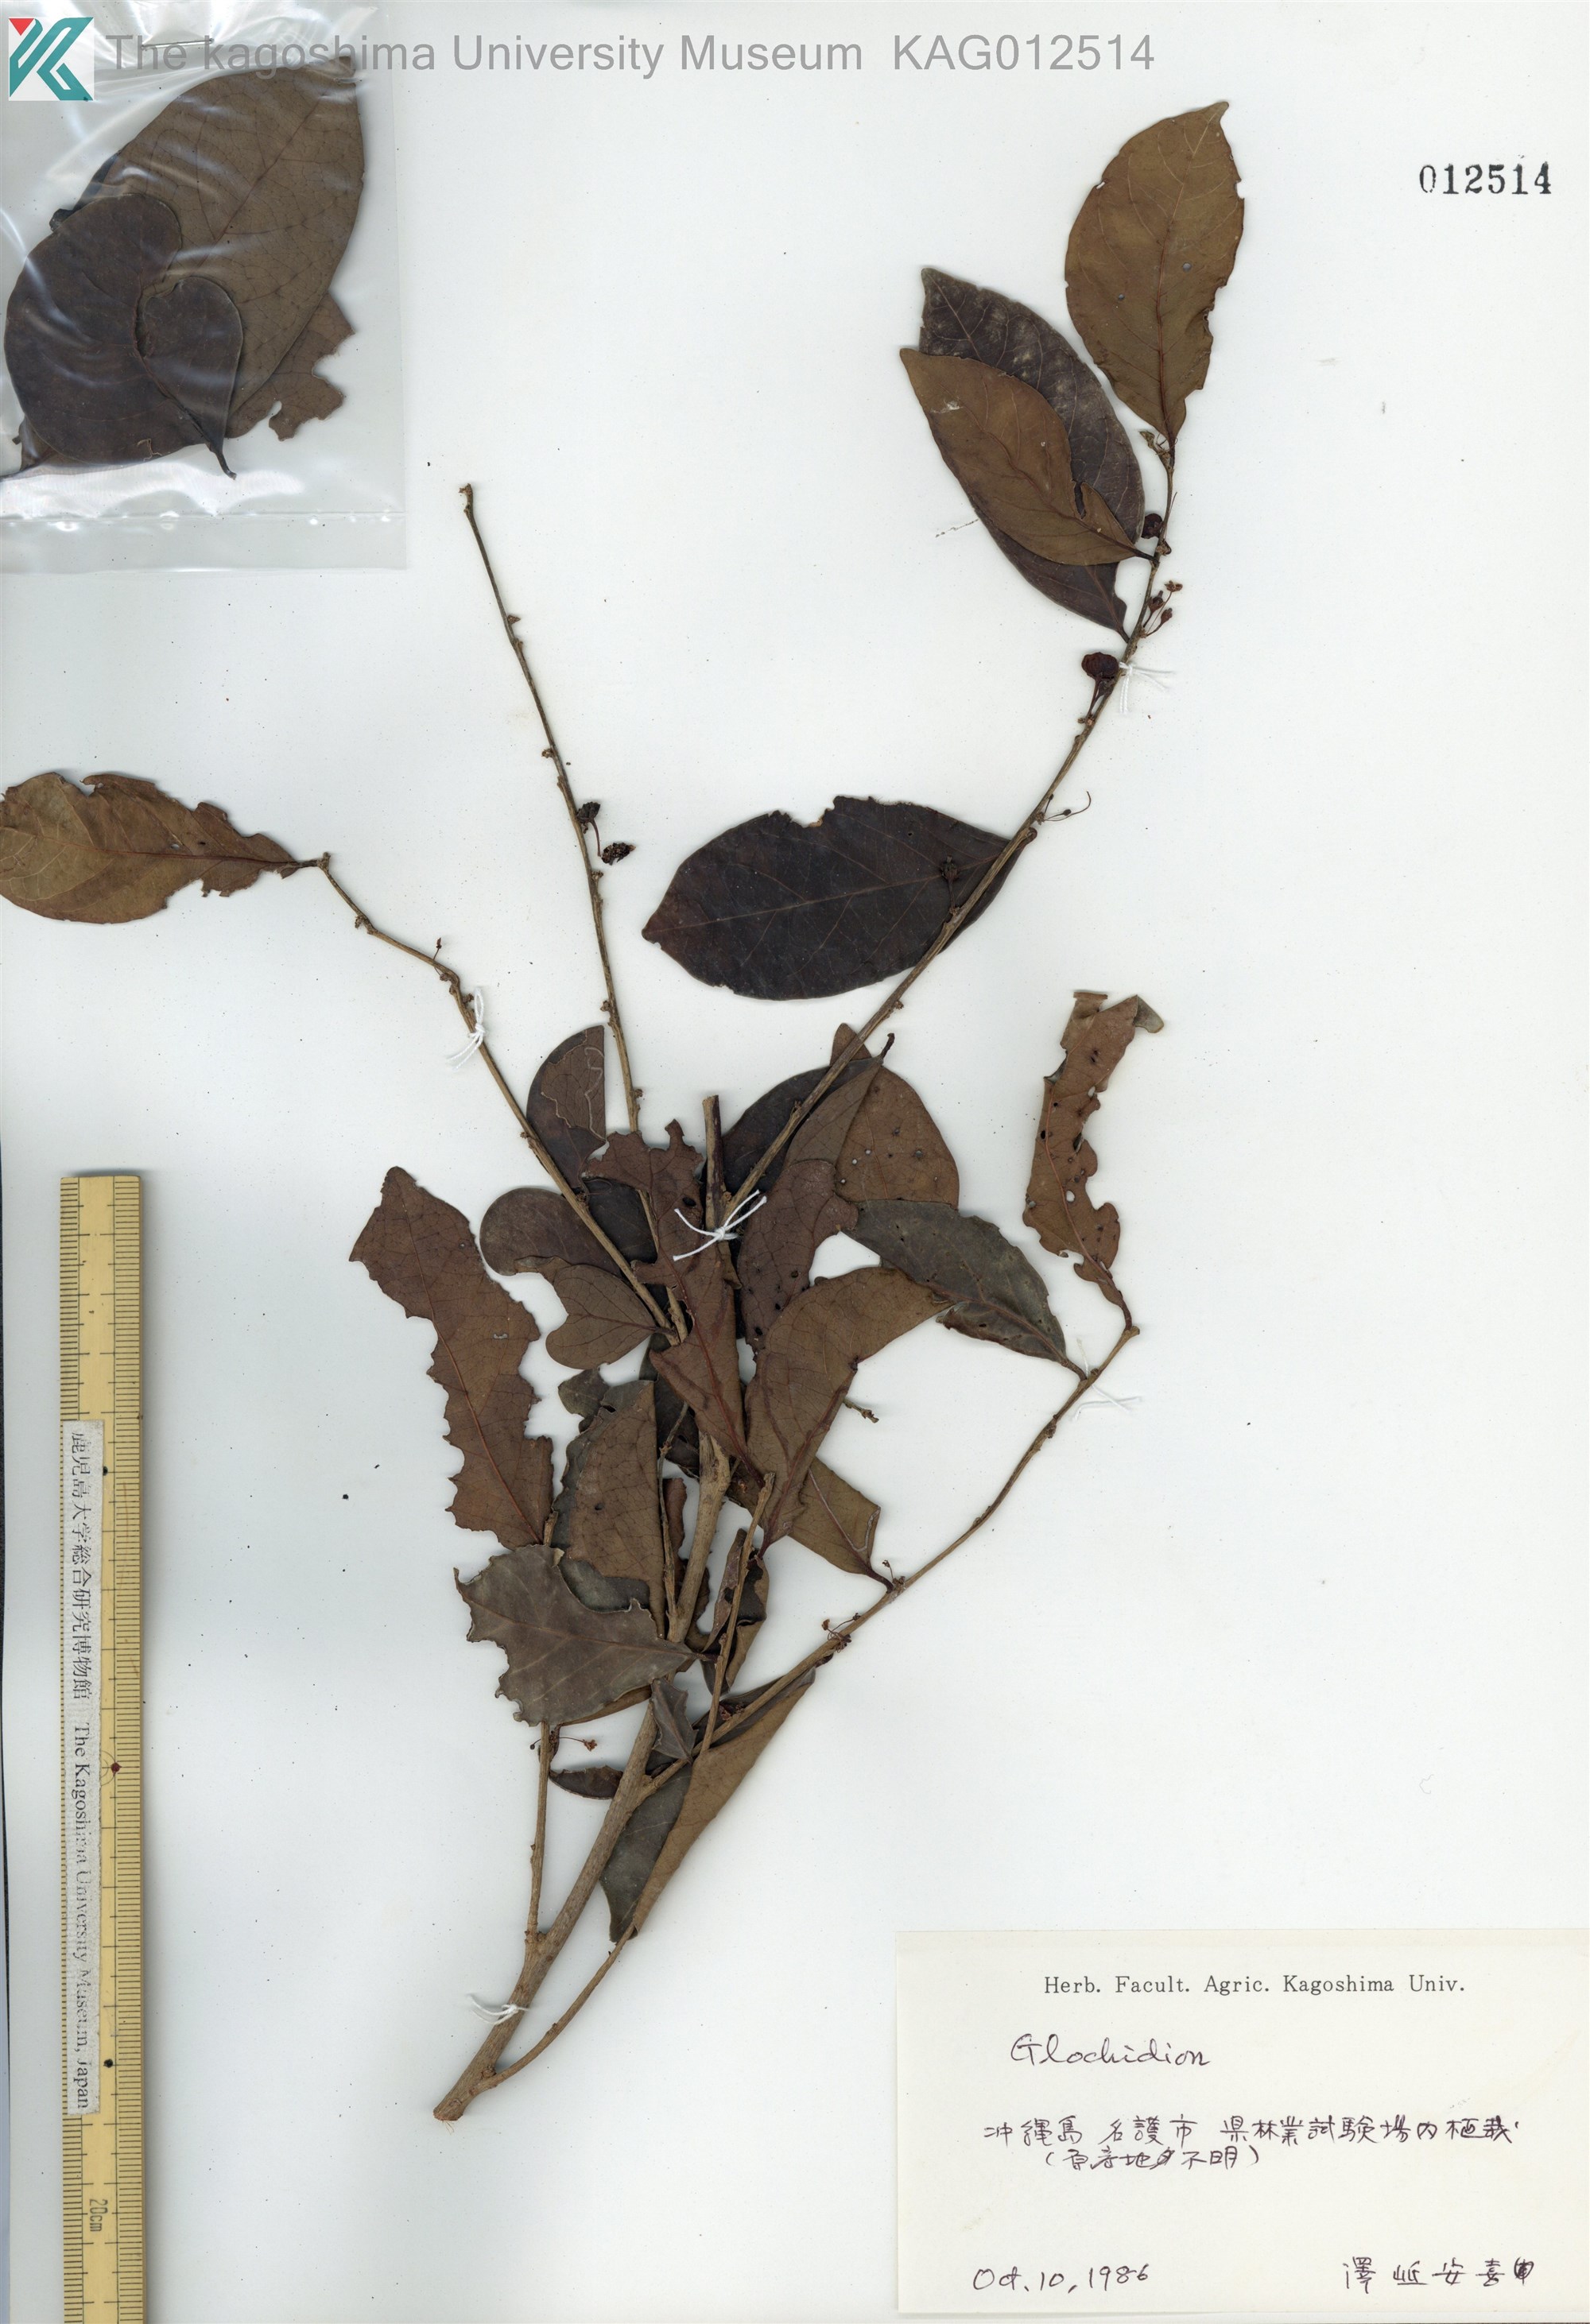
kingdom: Plantae
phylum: Tracheophyta
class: Magnoliopsida
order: Malpighiales
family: Phyllanthaceae
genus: Glochidion
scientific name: Glochidion zeylanicum
